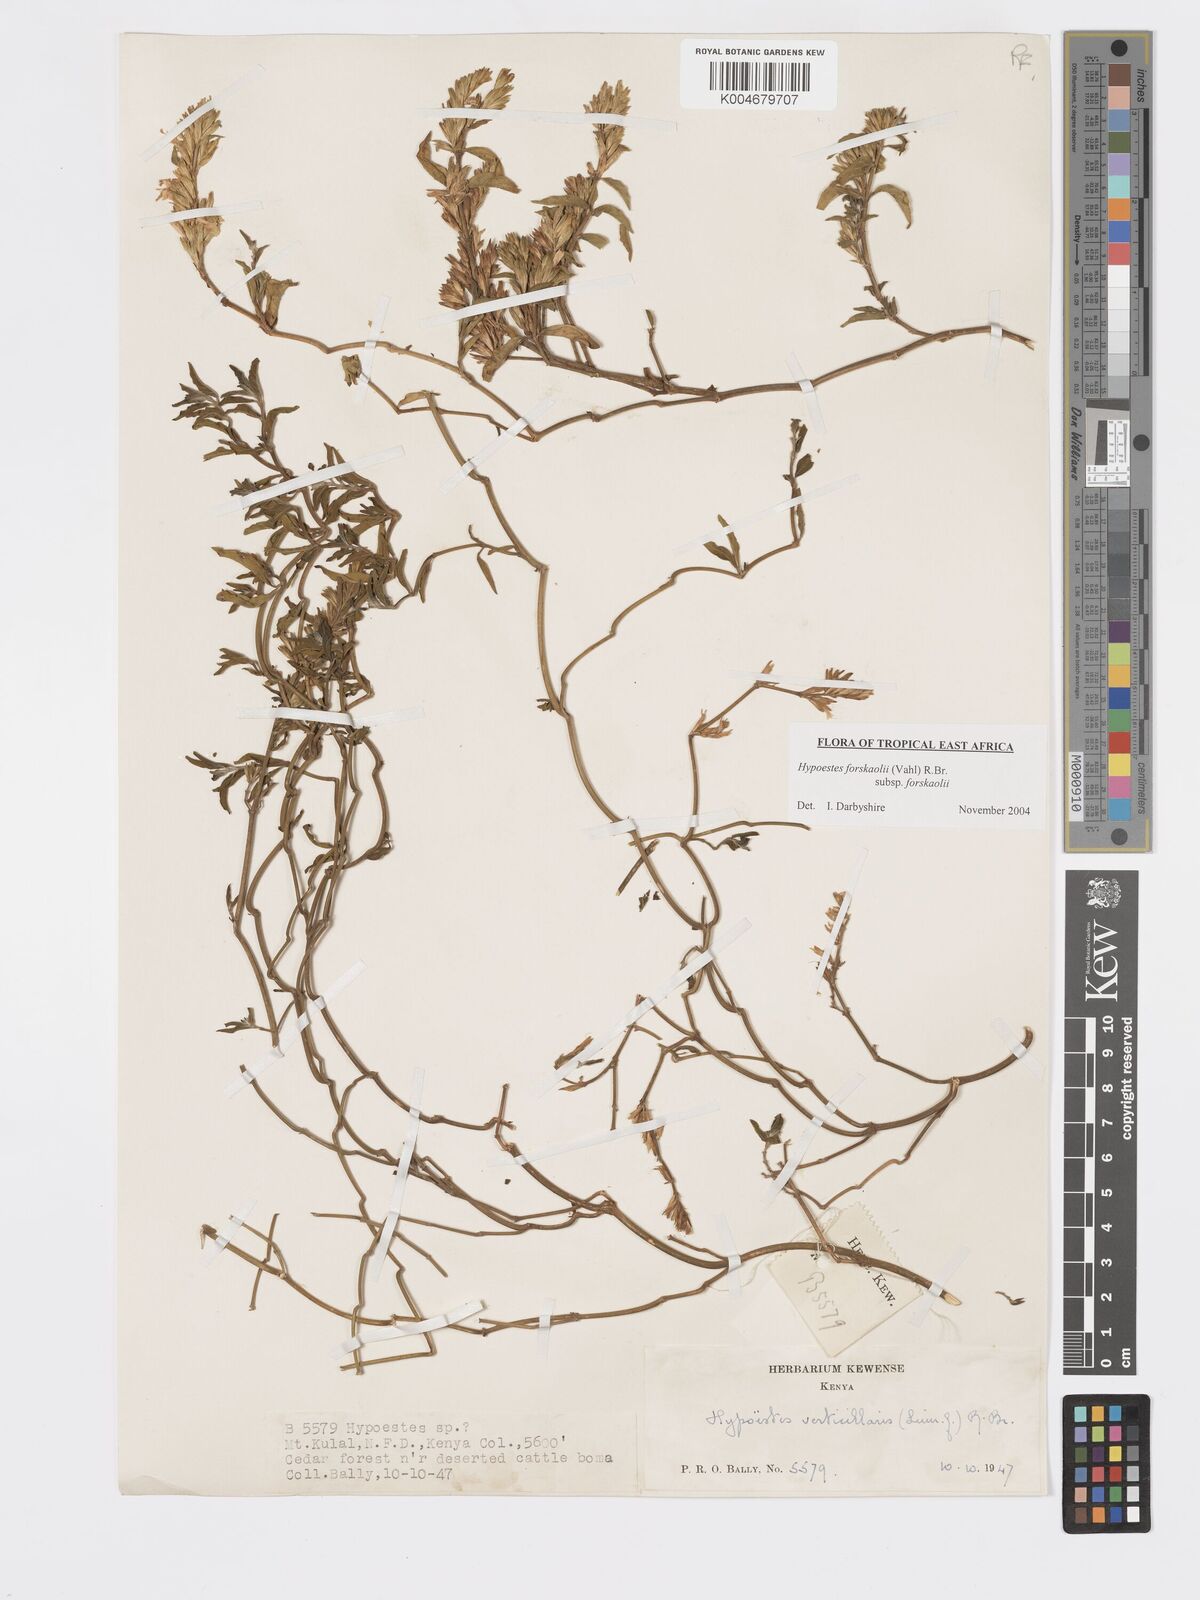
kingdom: Plantae
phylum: Tracheophyta
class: Magnoliopsida
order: Lamiales
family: Acanthaceae
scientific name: Acanthaceae
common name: Acanthaceae
